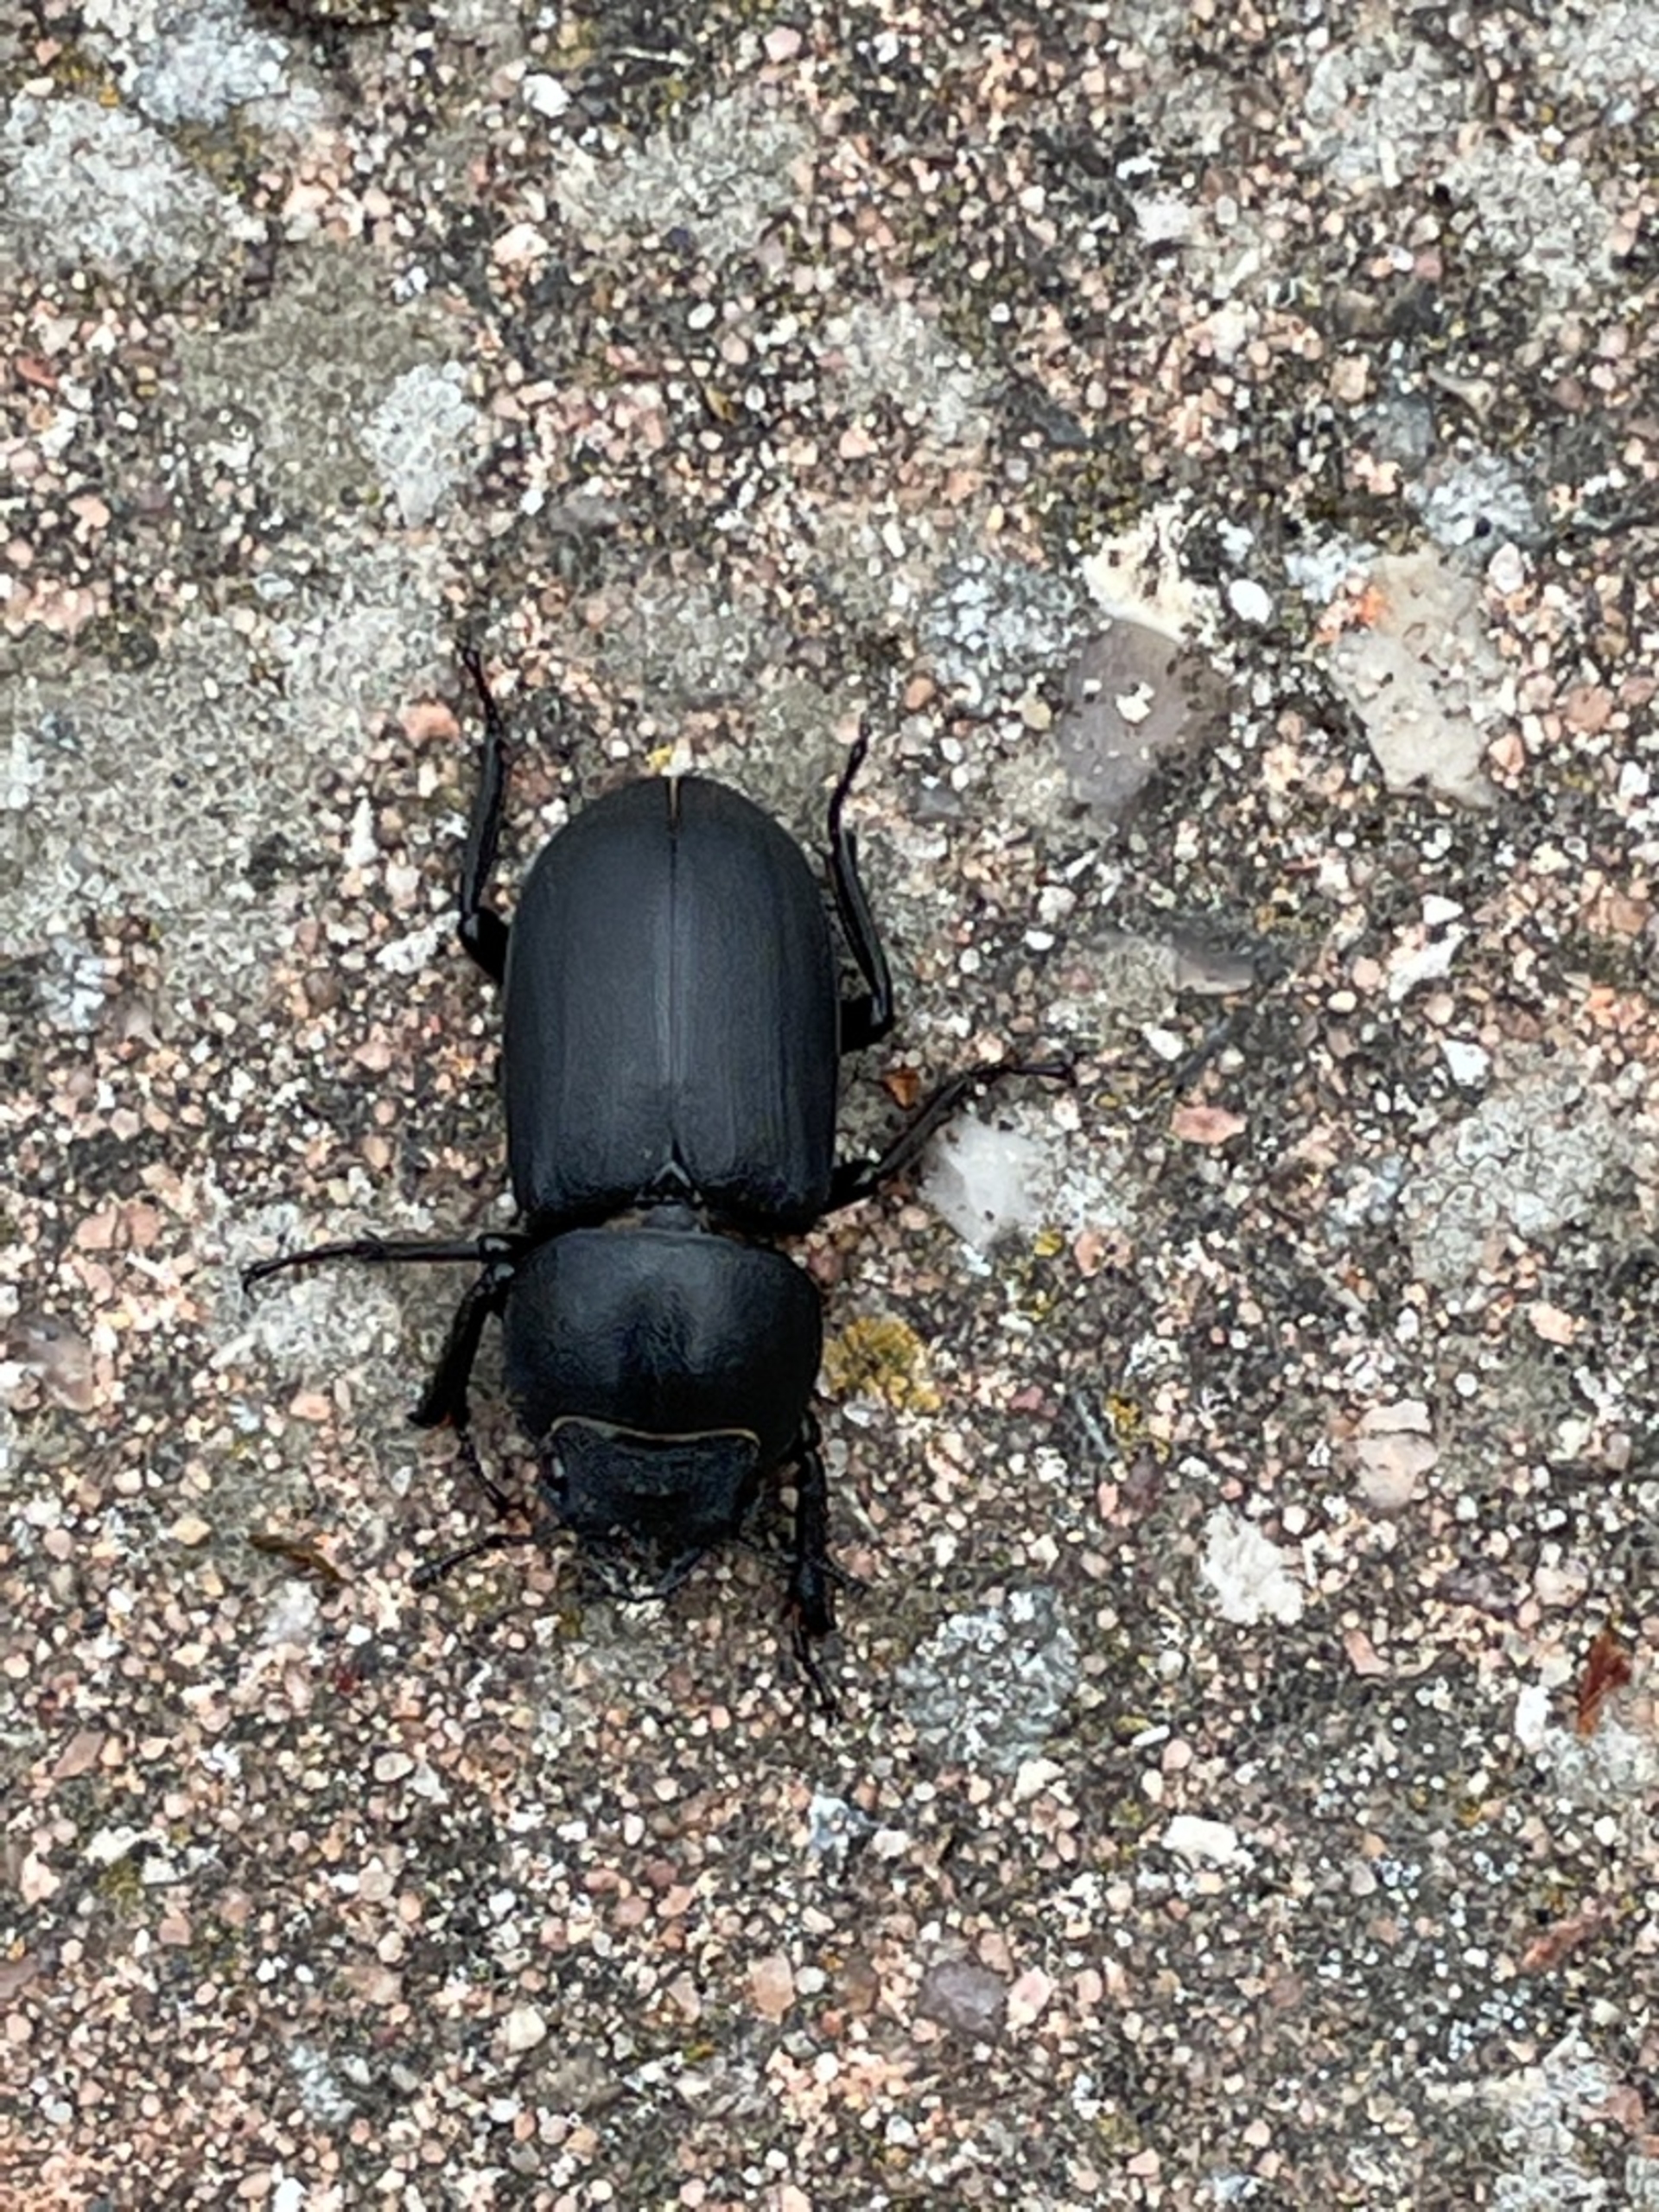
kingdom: Animalia
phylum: Arthropoda
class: Insecta
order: Coleoptera
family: Lucanidae
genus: Dorcus
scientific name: Dorcus parallelipipedus
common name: Bøghjort
